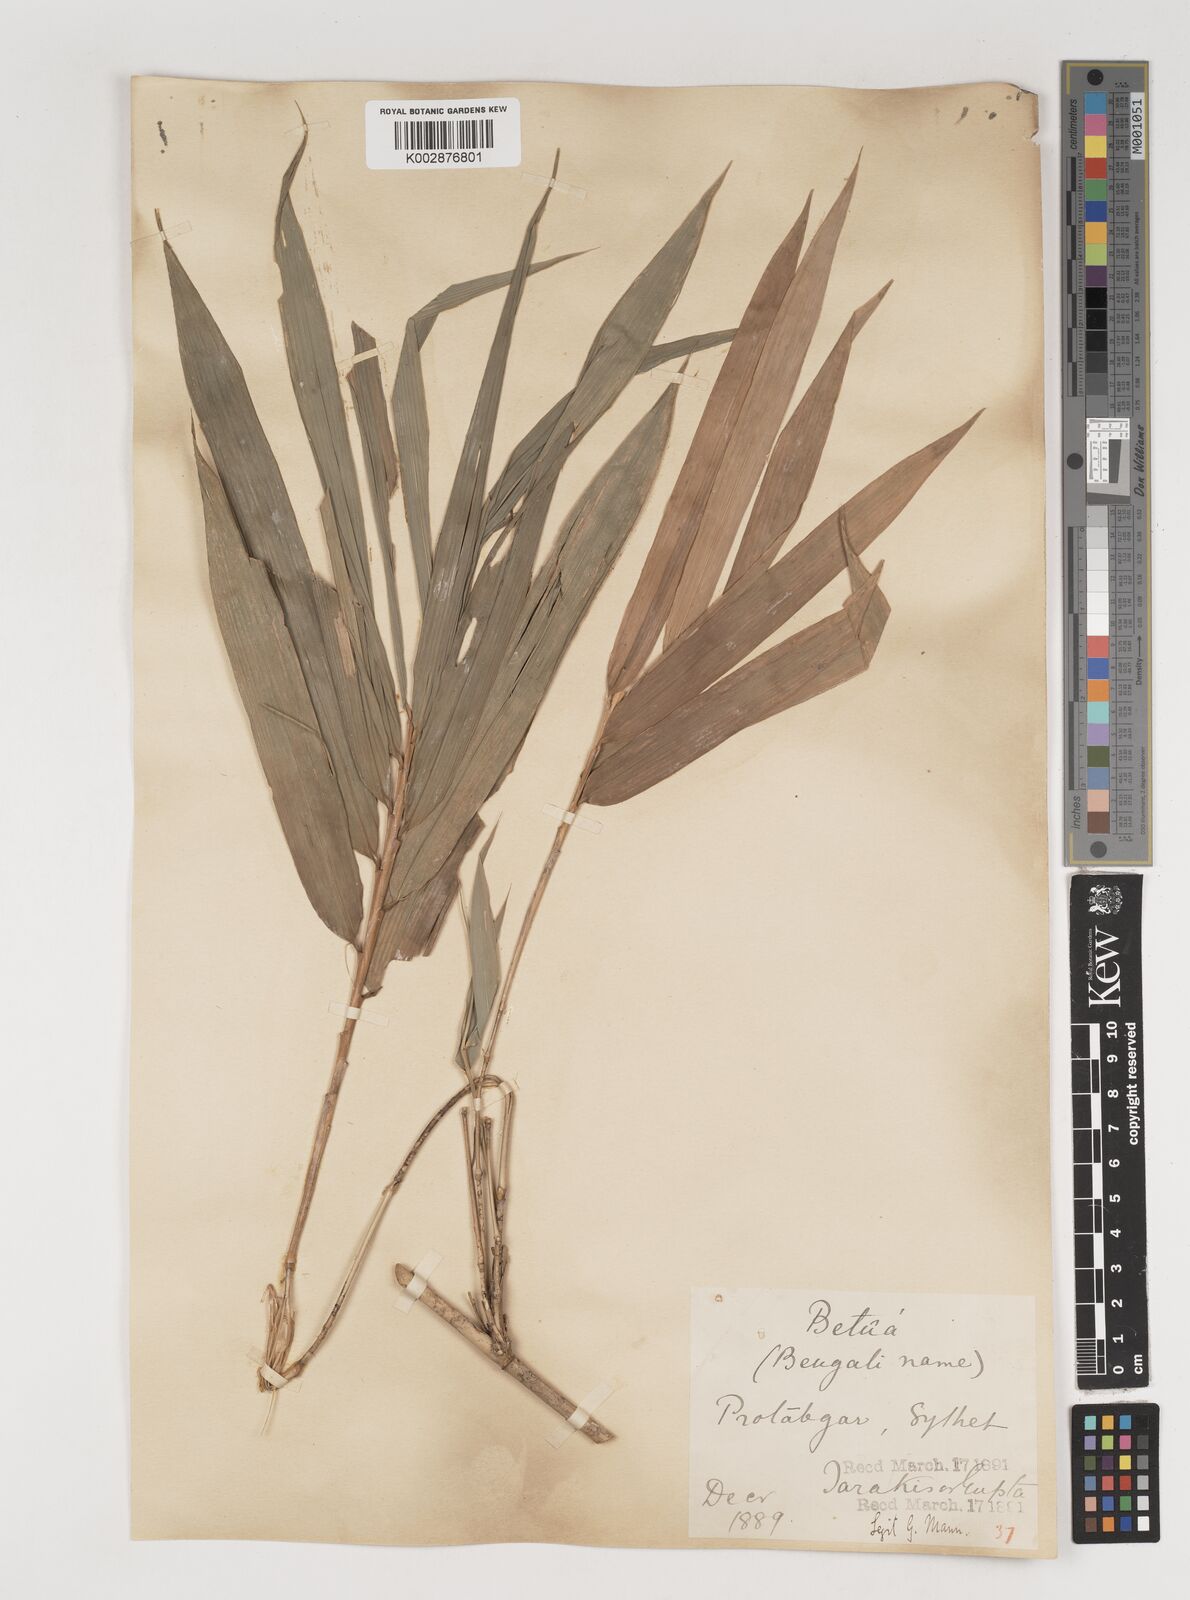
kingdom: Plantae
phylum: Tracheophyta
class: Liliopsida
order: Poales
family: Poaceae
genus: Bambusa
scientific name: Bambusa polymorpha
